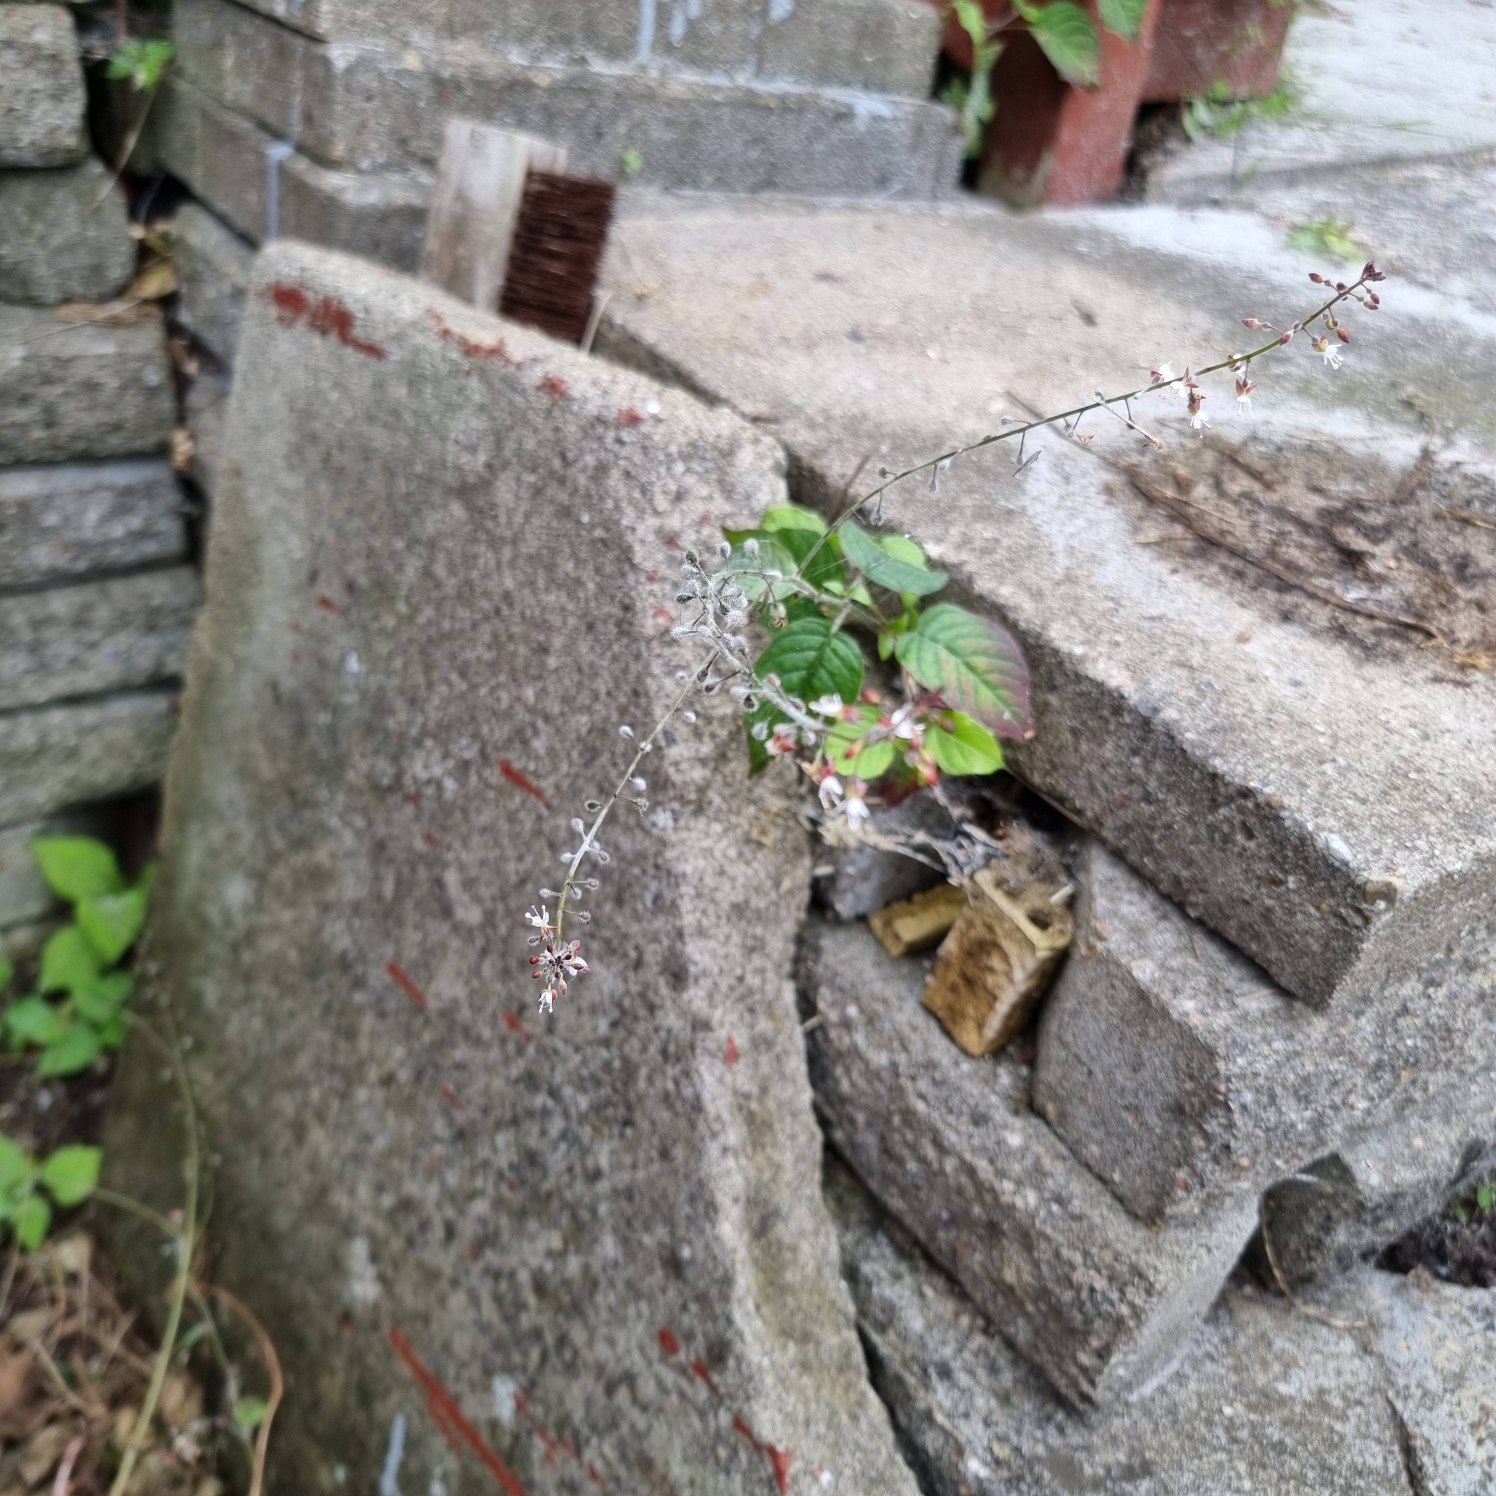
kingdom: Plantae
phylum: Tracheophyta
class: Magnoliopsida
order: Myrtales
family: Onagraceae
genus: Circaea
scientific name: Circaea lutetiana
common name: Dunet steffensurt
